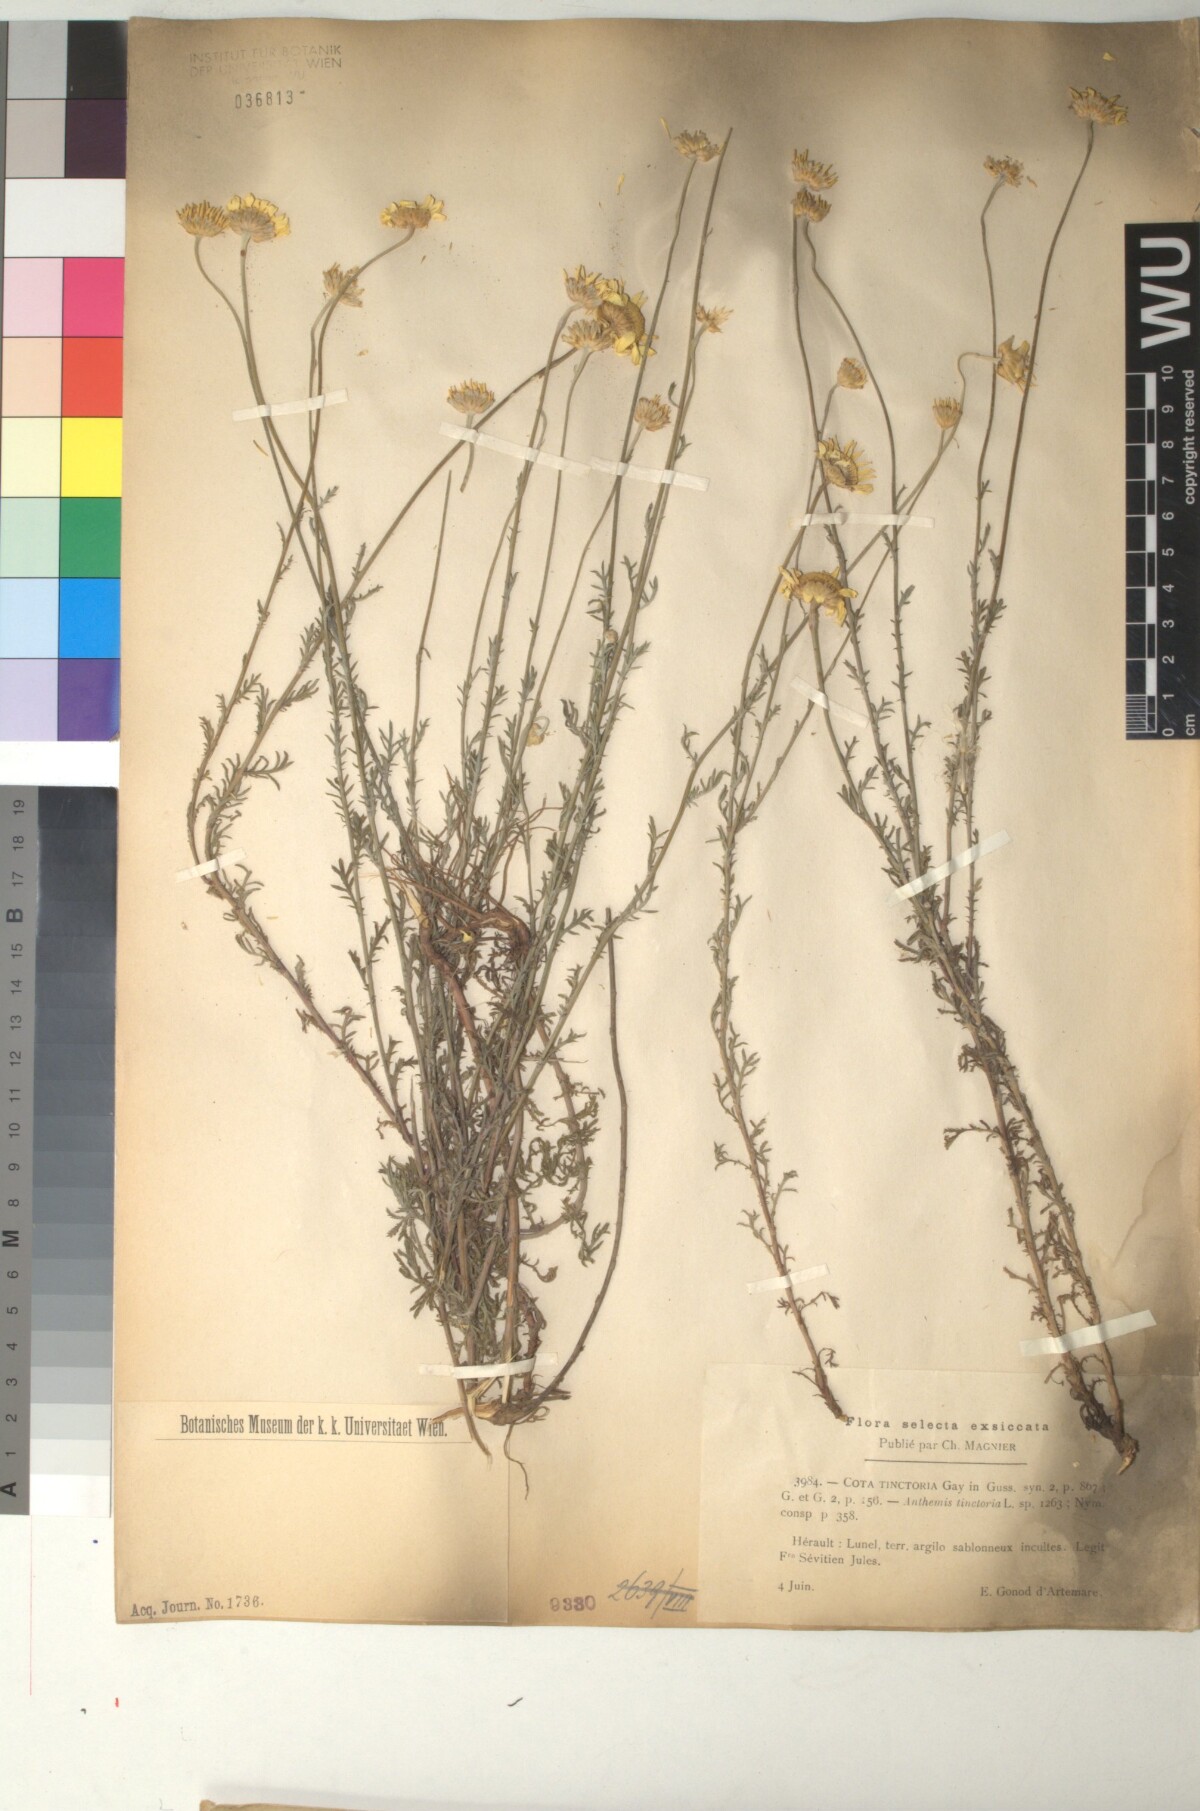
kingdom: Plantae
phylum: Tracheophyta
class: Magnoliopsida
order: Asterales
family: Asteraceae
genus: Cota
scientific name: Cota tinctoria
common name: Golden chamomile
